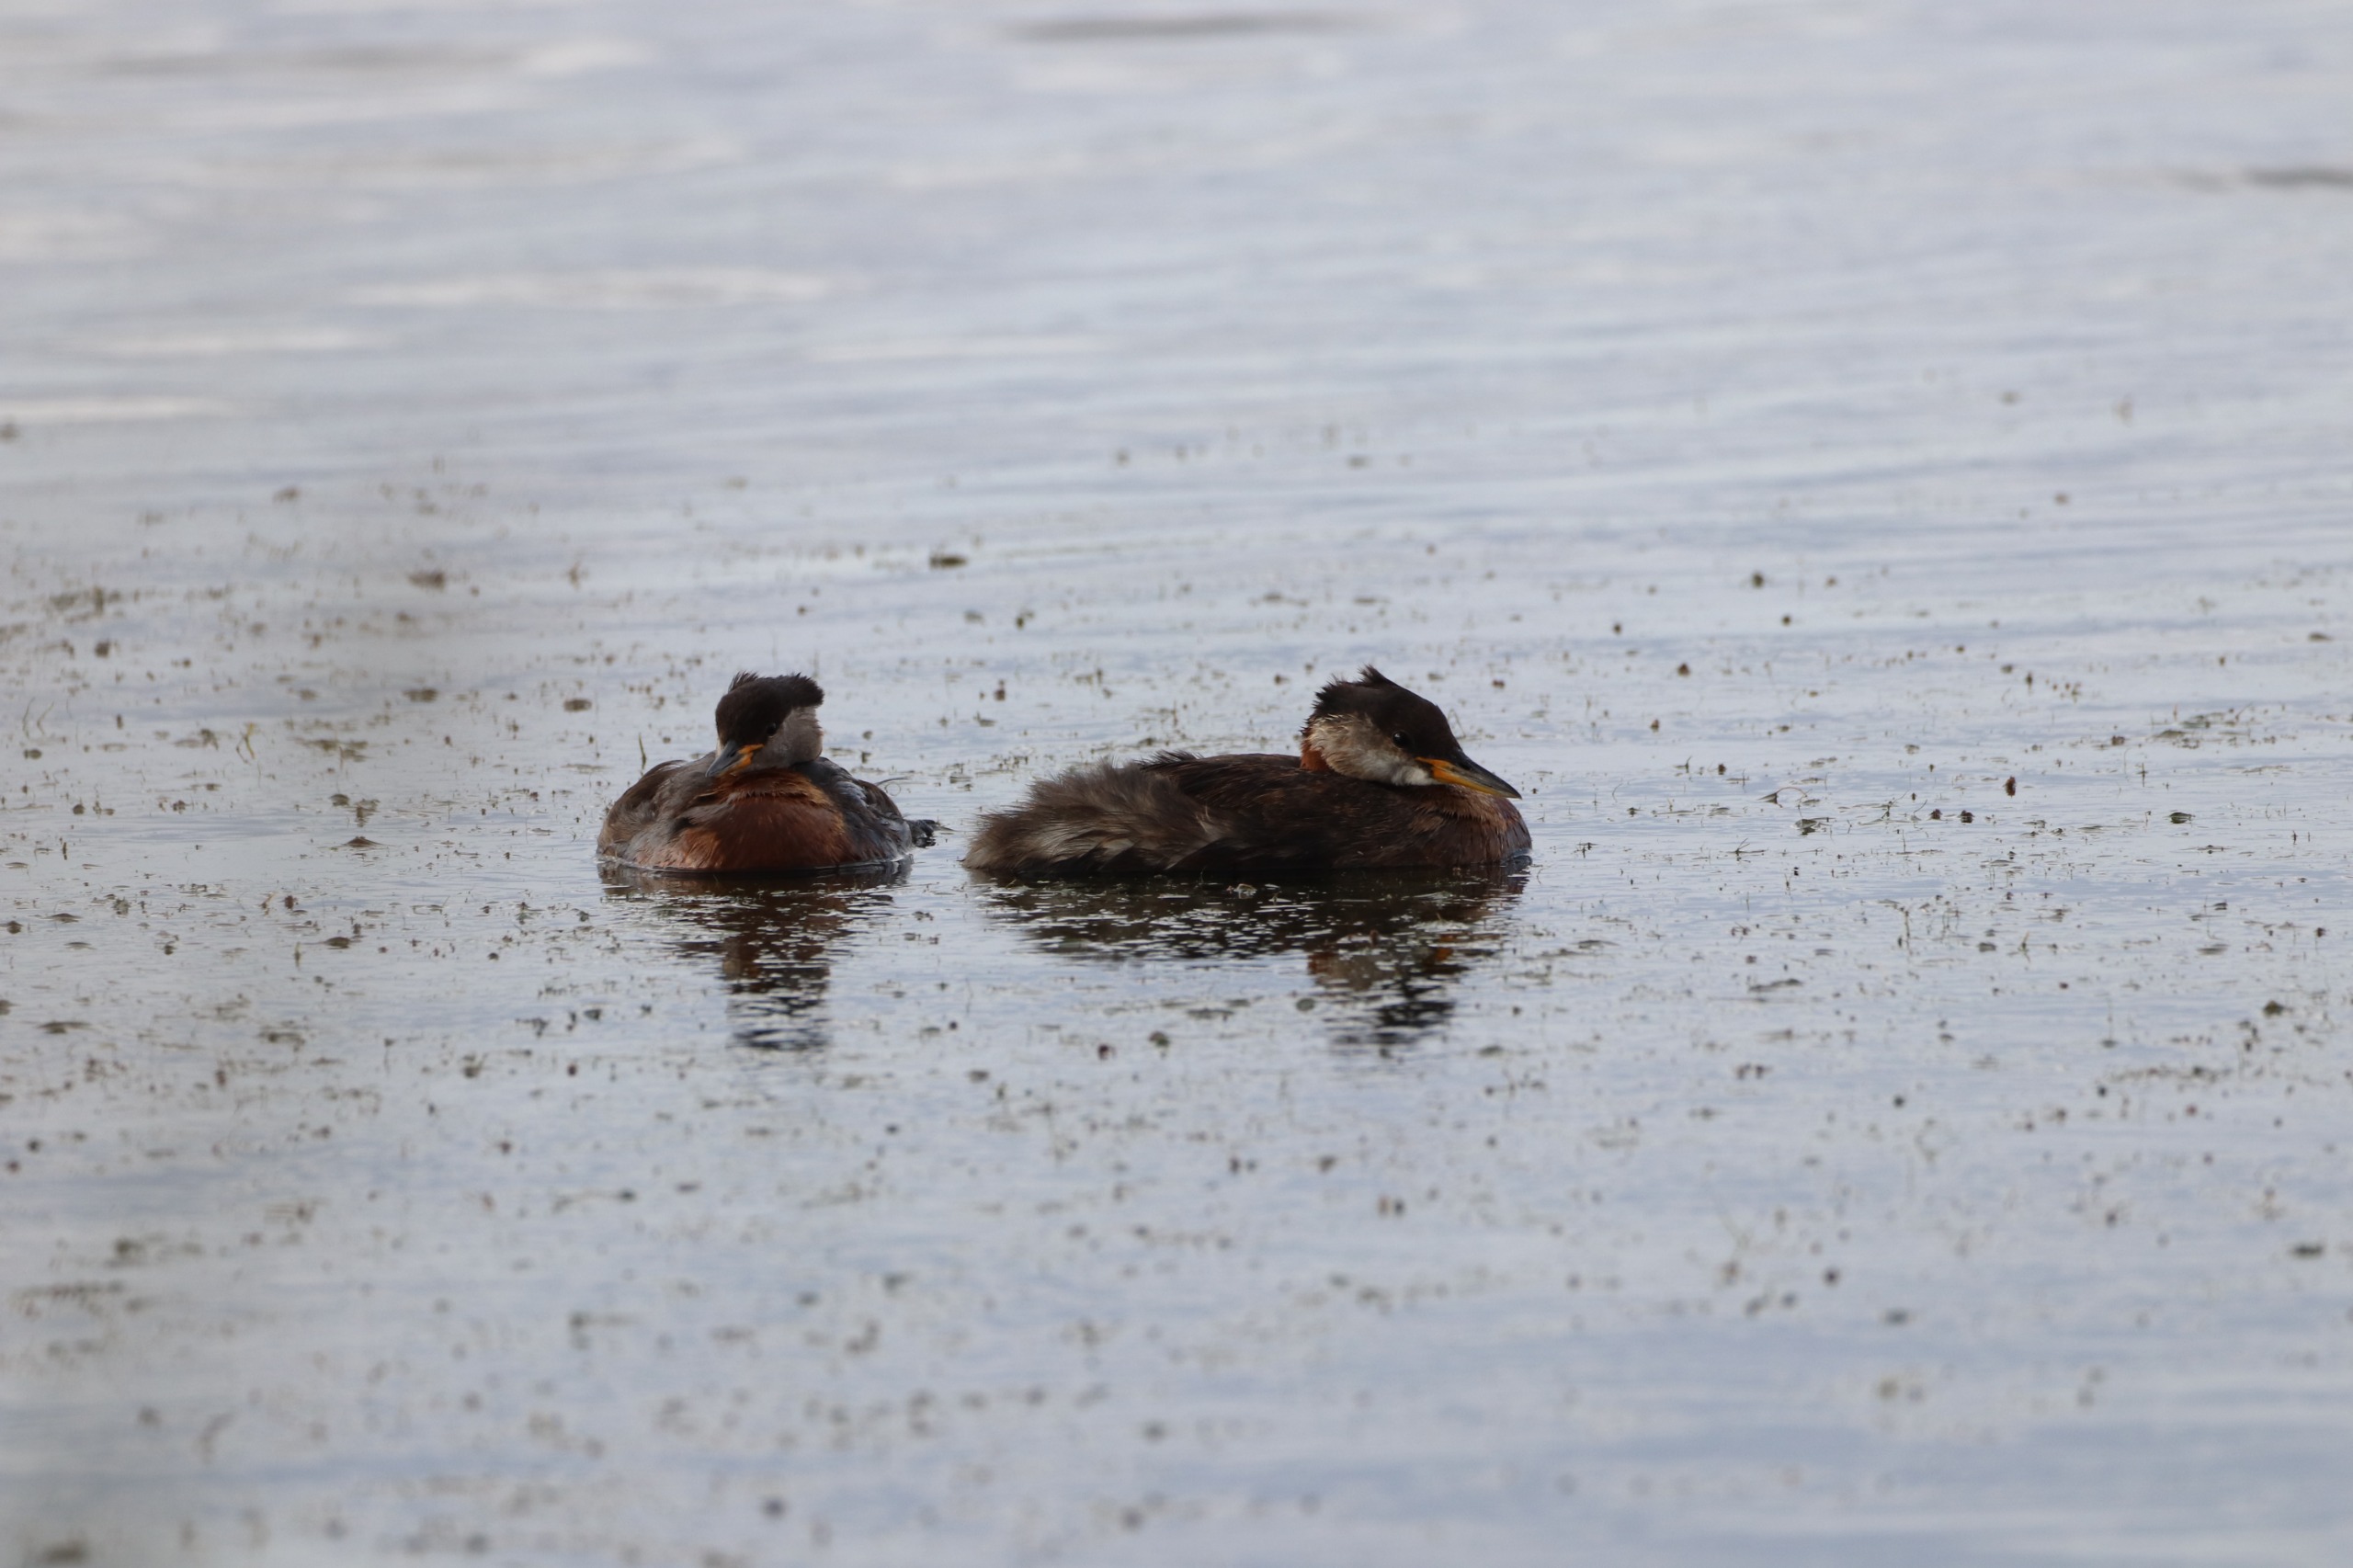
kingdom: Animalia
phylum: Chordata
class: Aves
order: Podicipediformes
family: Podicipedidae
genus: Podiceps
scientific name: Podiceps grisegena
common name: Gråstrubet lappedykker
